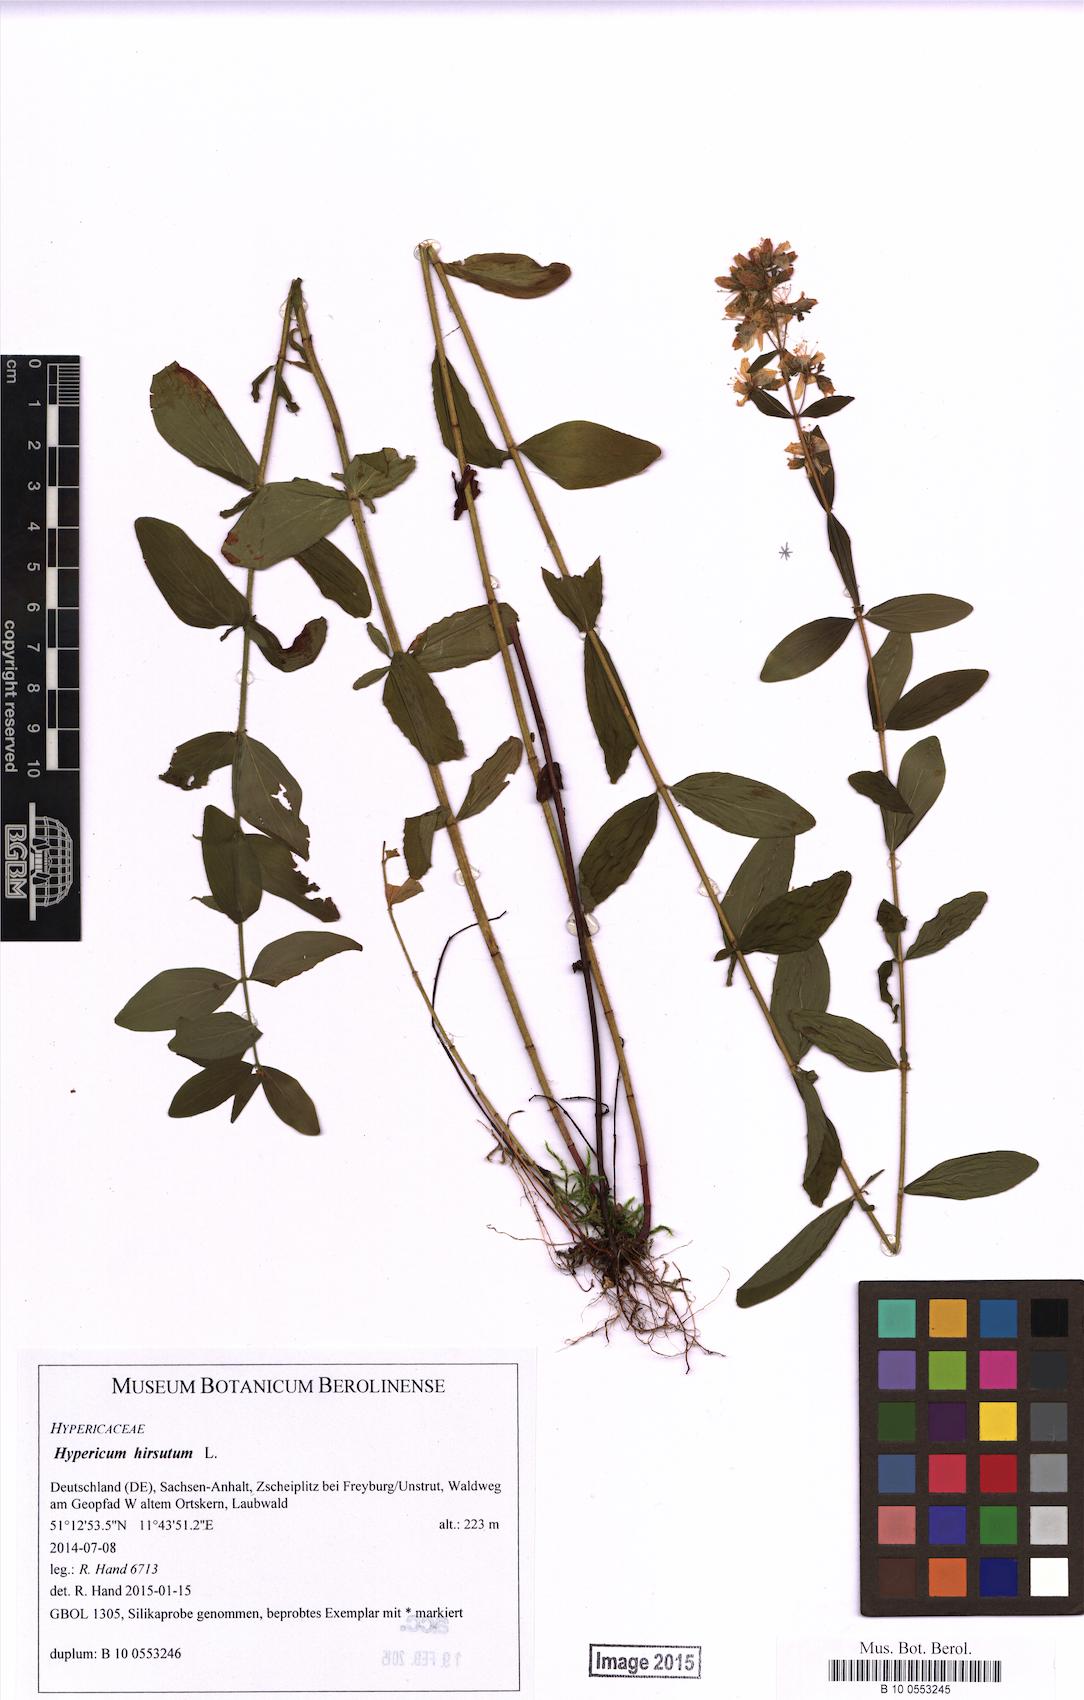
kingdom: Plantae
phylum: Tracheophyta
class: Magnoliopsida
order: Malpighiales
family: Hypericaceae
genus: Hypericum
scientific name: Hypericum hirsutum
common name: Hairy st. john's-wort
